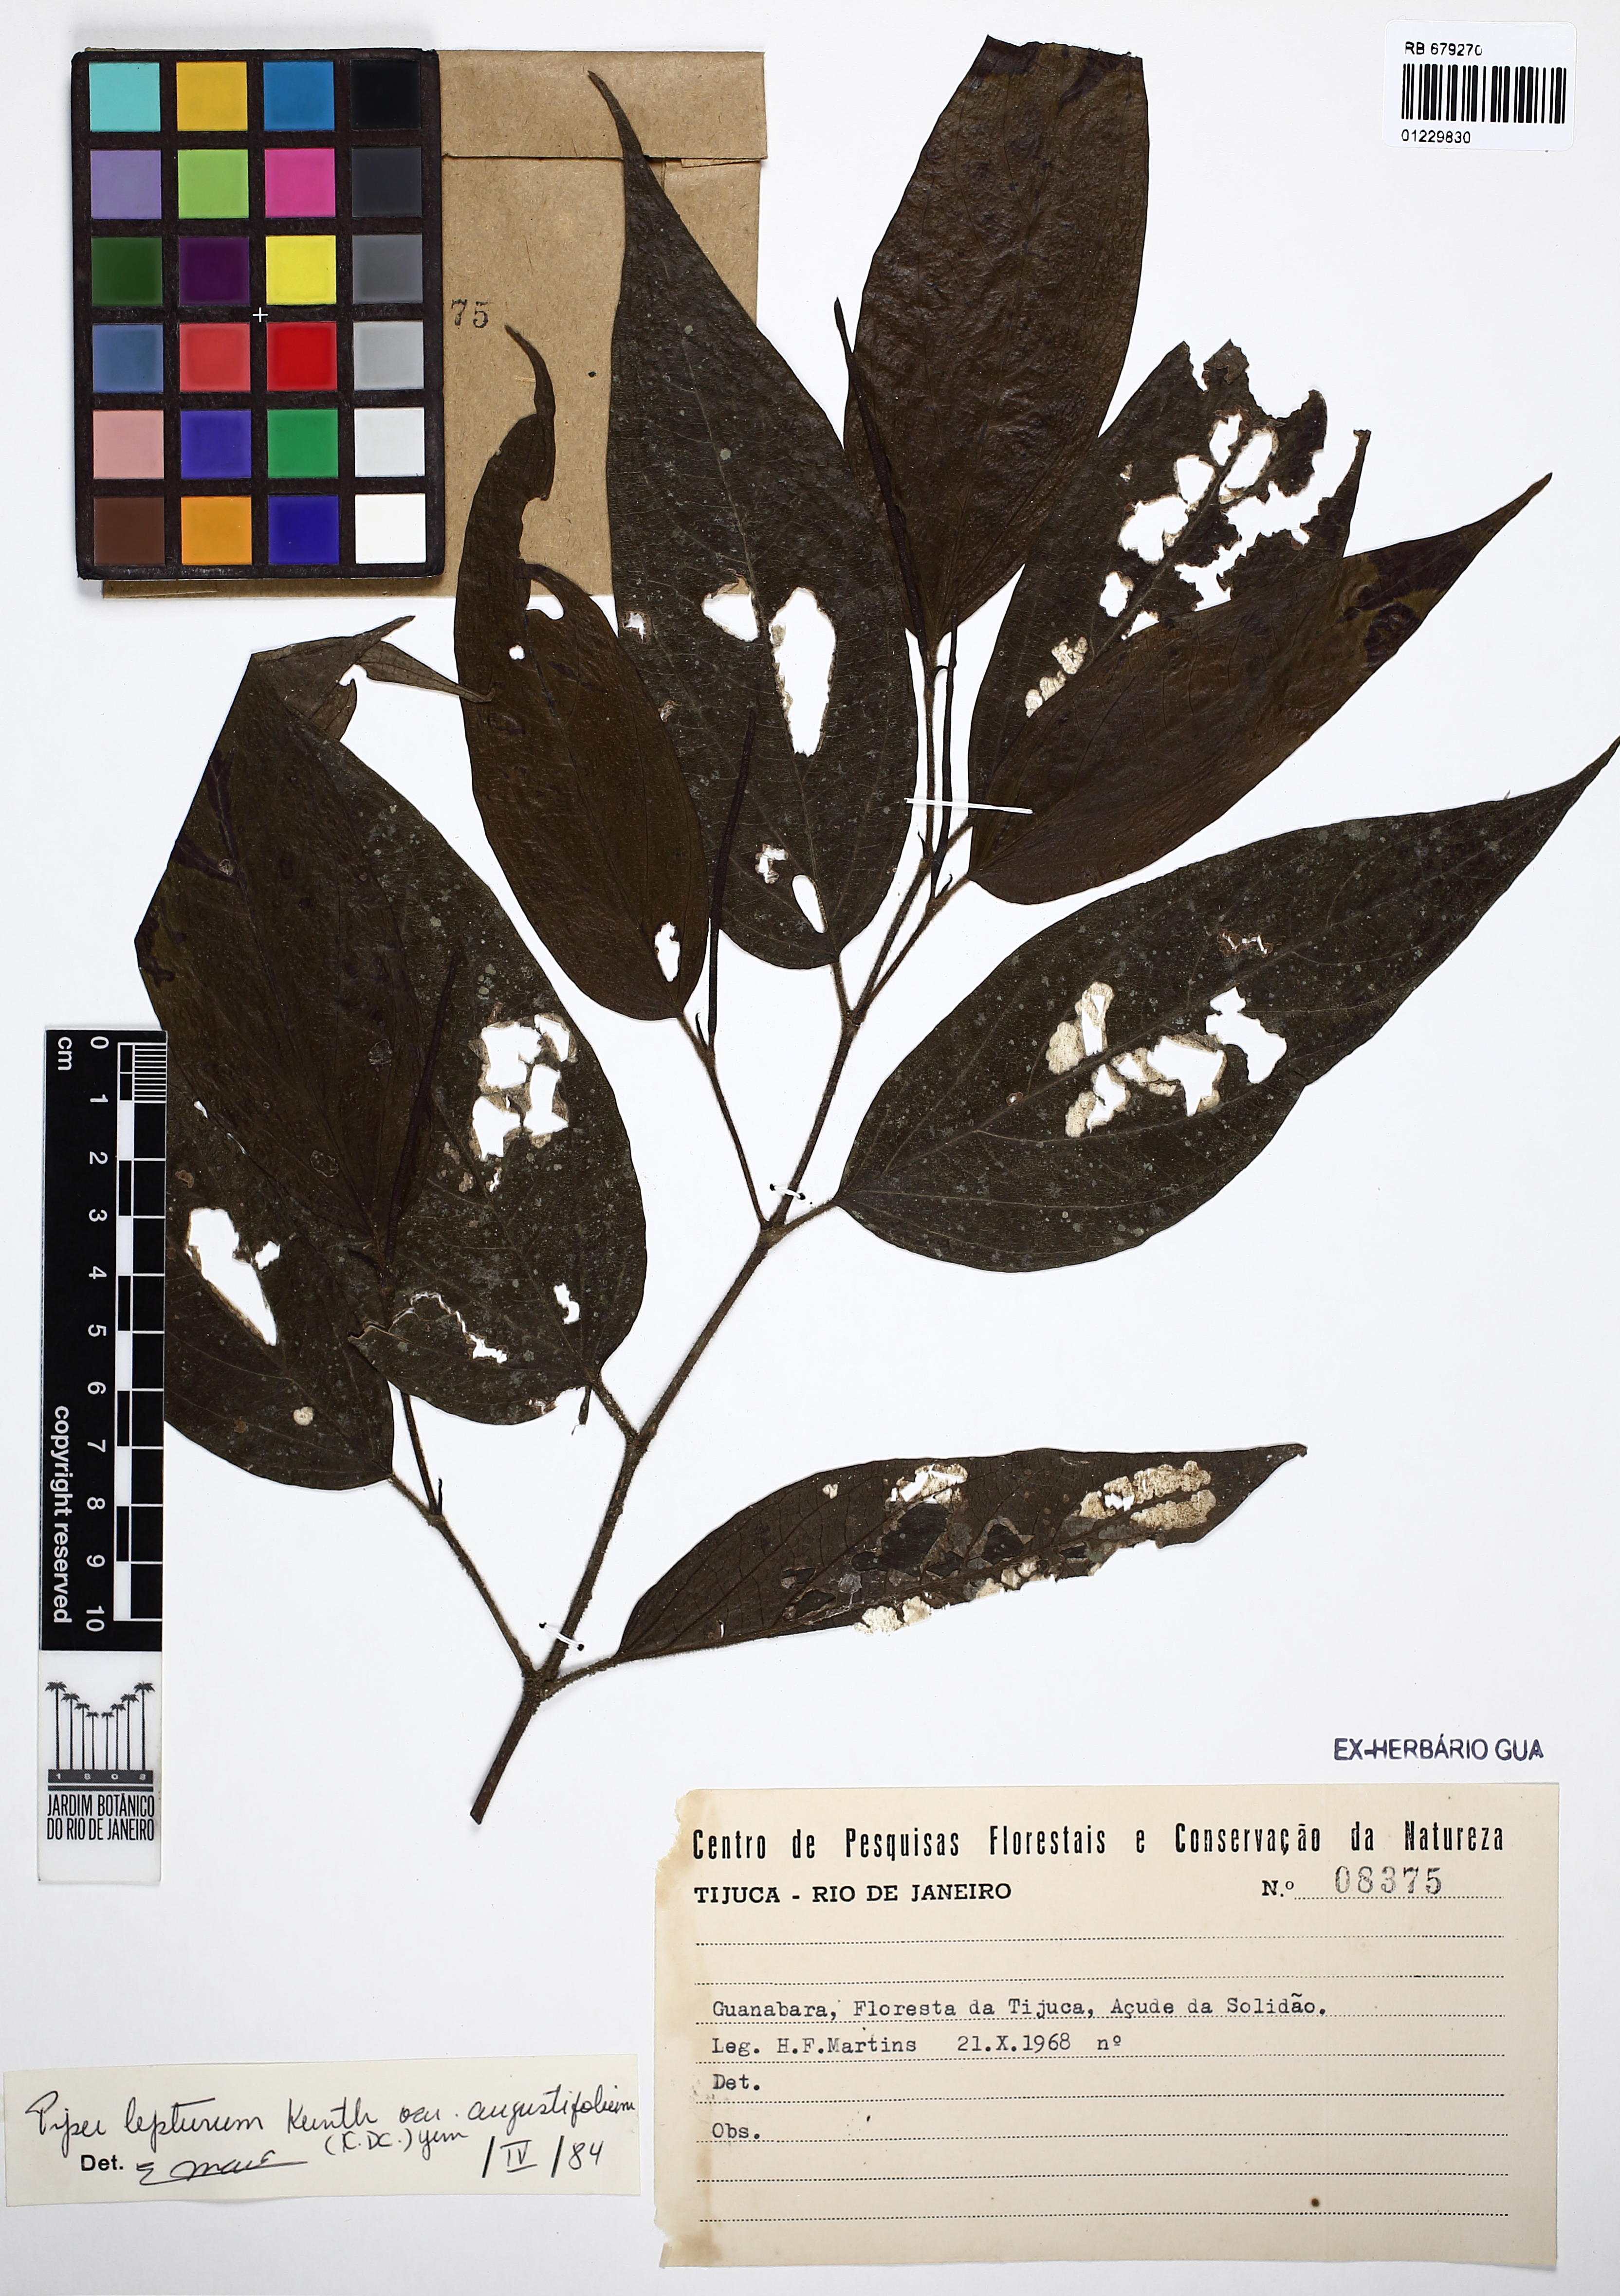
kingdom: Plantae
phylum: Tracheophyta
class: Magnoliopsida
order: Piperales
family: Piperaceae
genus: Piper
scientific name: Piper lepturum
